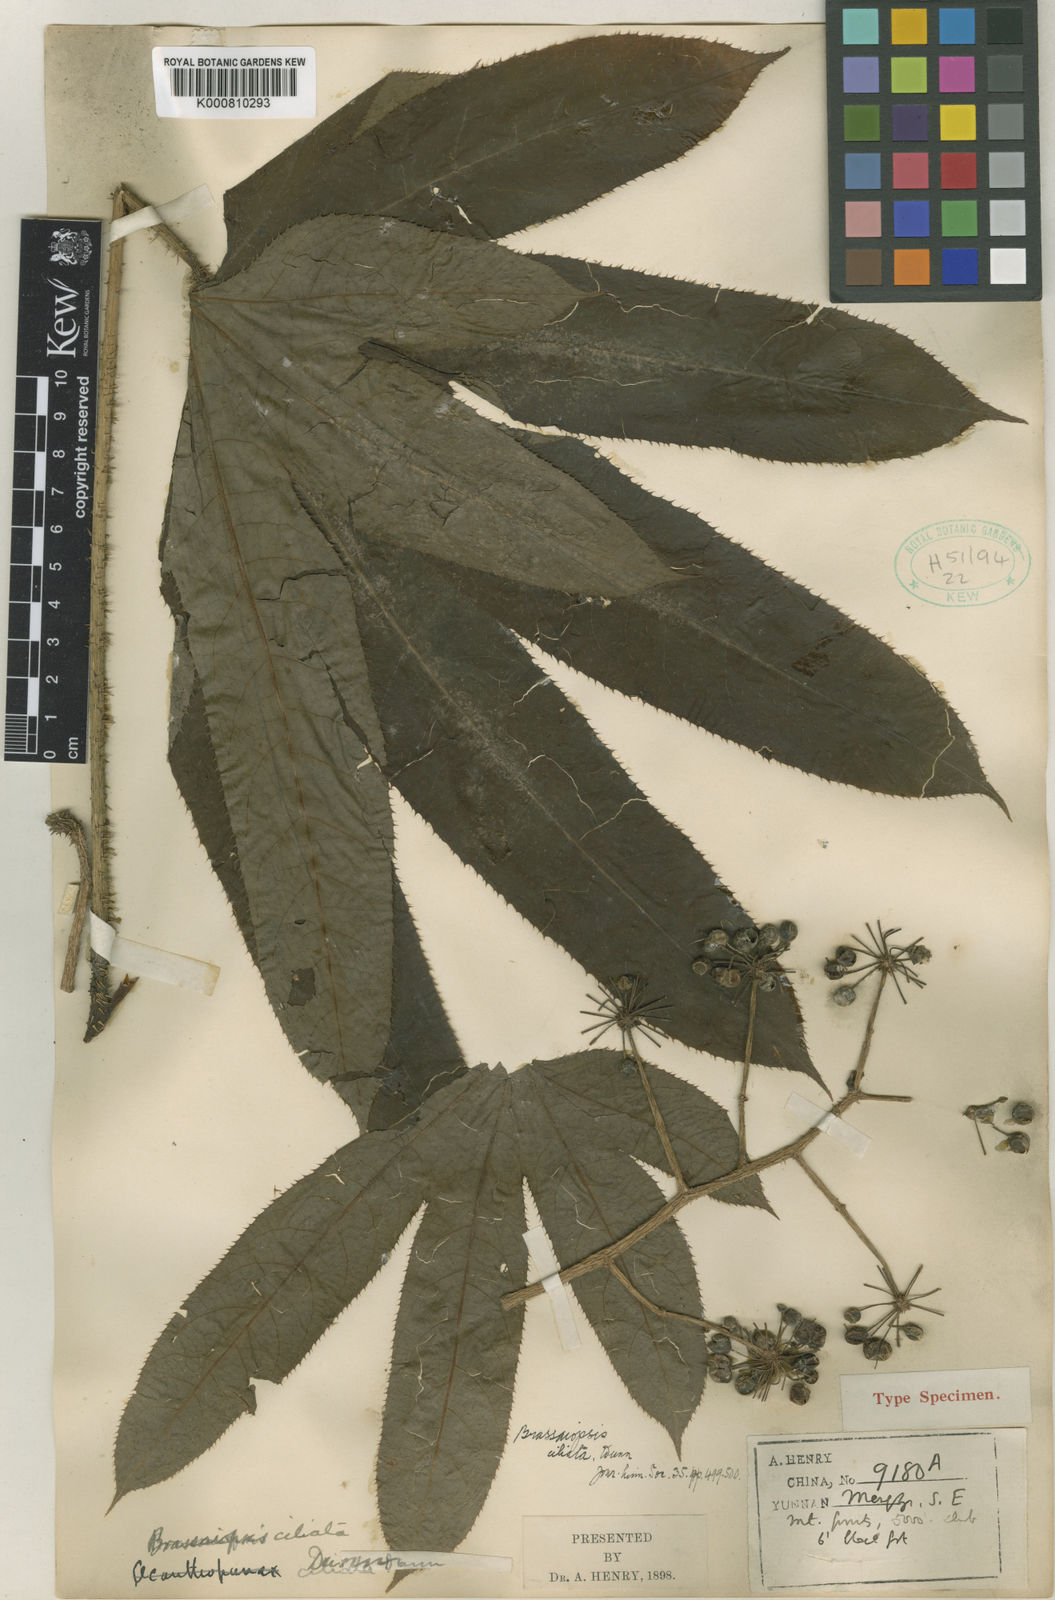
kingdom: Plantae
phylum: Tracheophyta
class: Magnoliopsida
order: Apiales
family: Araliaceae
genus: Brassaiopsis
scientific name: Brassaiopsis ciliata
